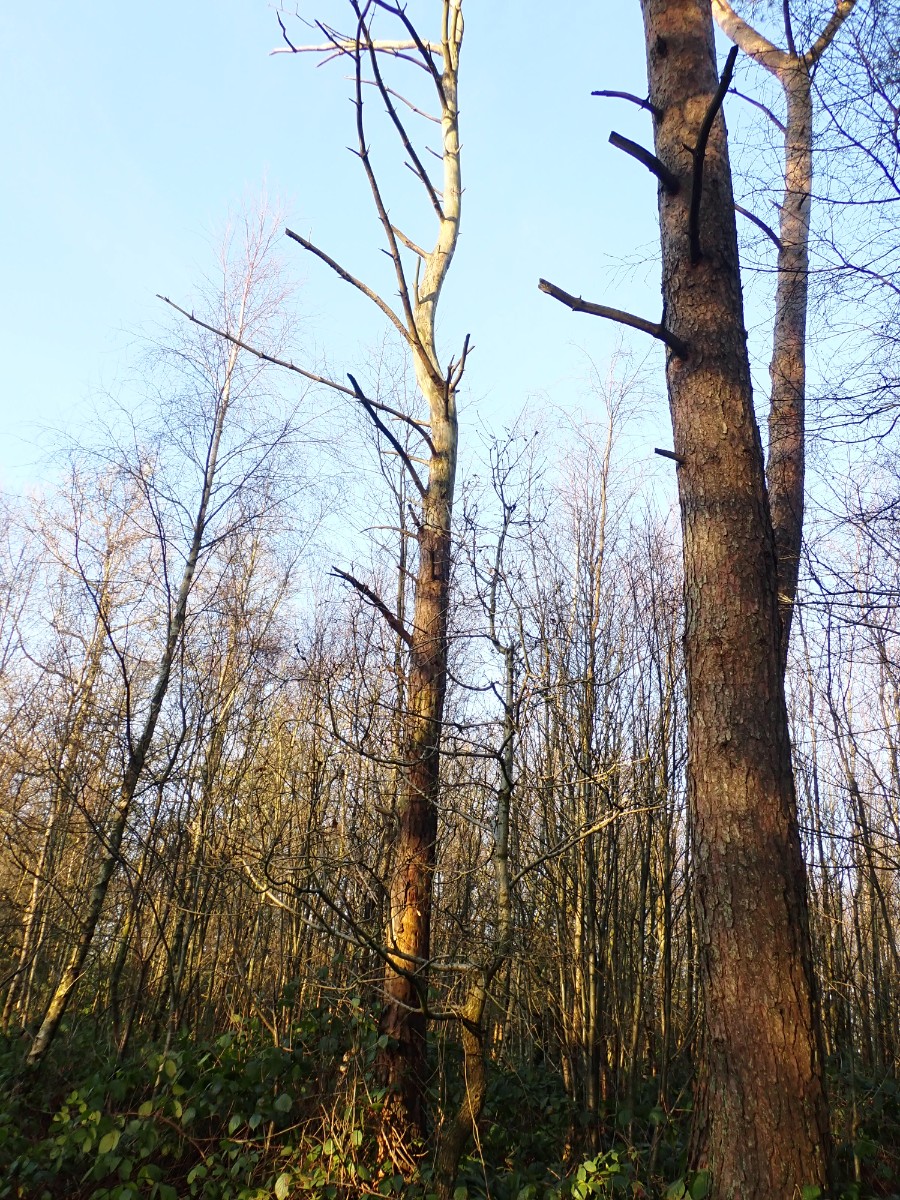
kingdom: Fungi
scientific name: Fungi
